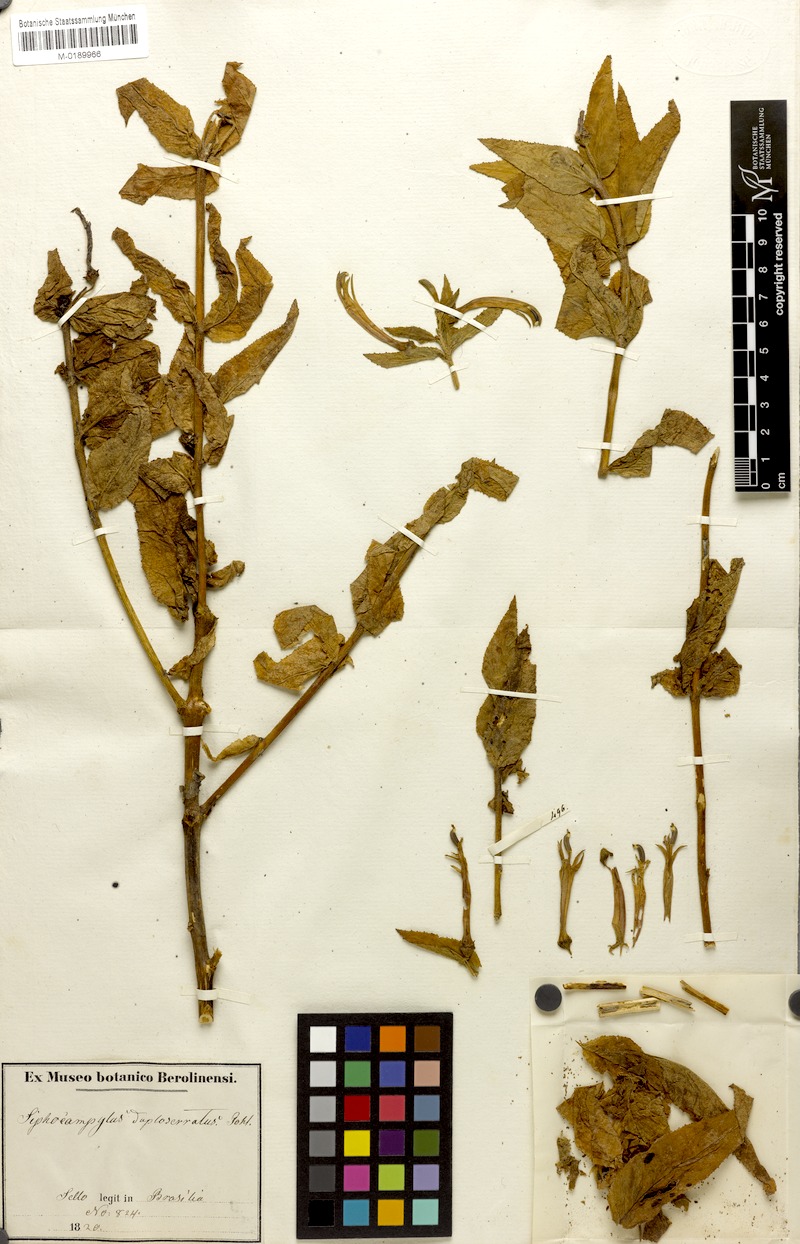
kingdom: Plantae
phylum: Tracheophyta
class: Magnoliopsida
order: Asterales
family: Campanulaceae
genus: Siphocampylus
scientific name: Siphocampylus duploserratus
